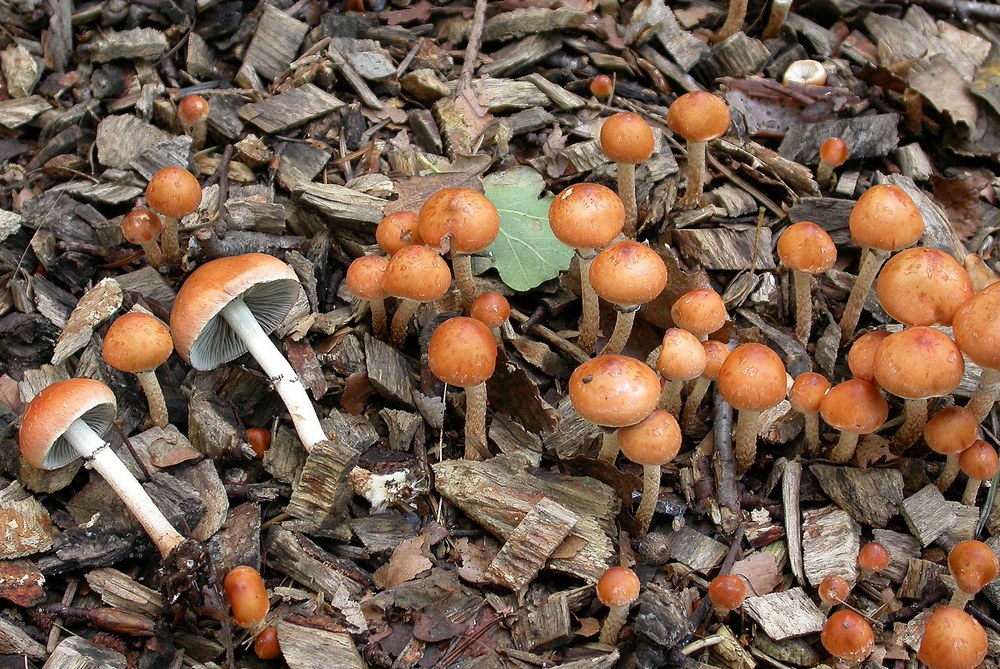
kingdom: Fungi
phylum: Basidiomycota
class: Agaricomycetes
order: Agaricales
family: Strophariaceae
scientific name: Strophariaceae
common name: bredbladfamilien
